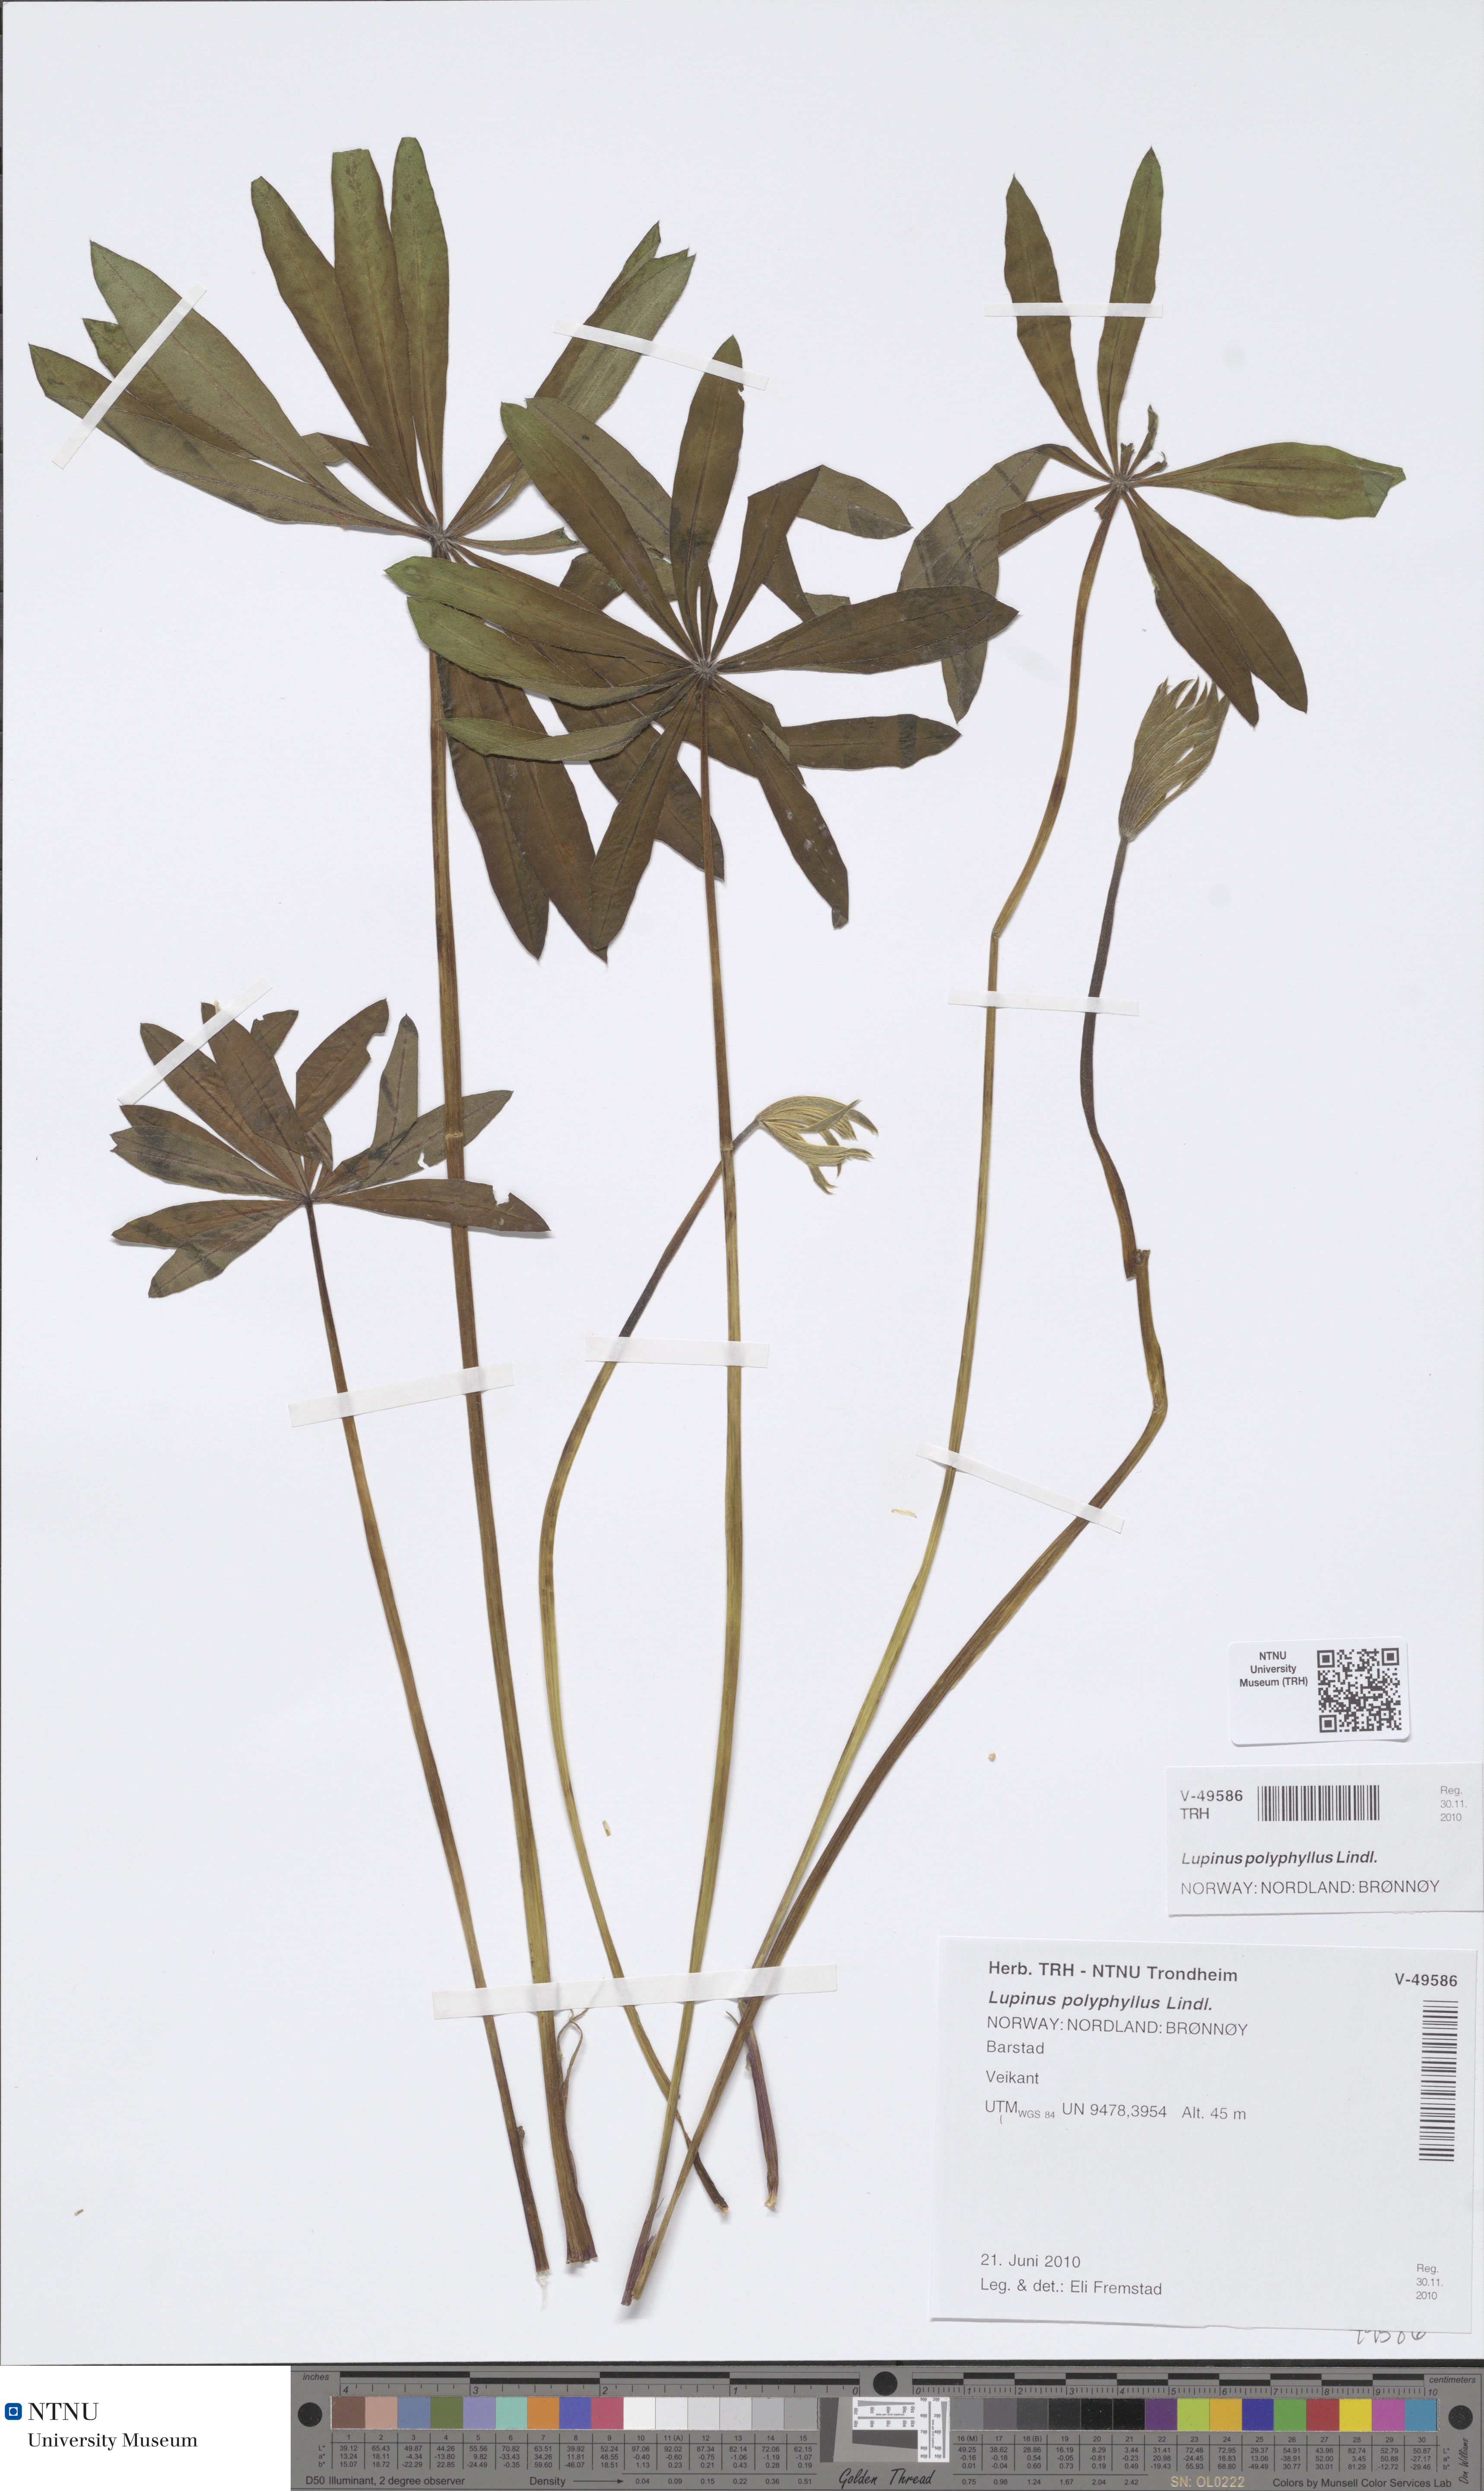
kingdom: Plantae
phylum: Tracheophyta
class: Magnoliopsida
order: Fabales
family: Fabaceae
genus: Lupinus
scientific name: Lupinus polyphyllus
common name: Garden lupin
